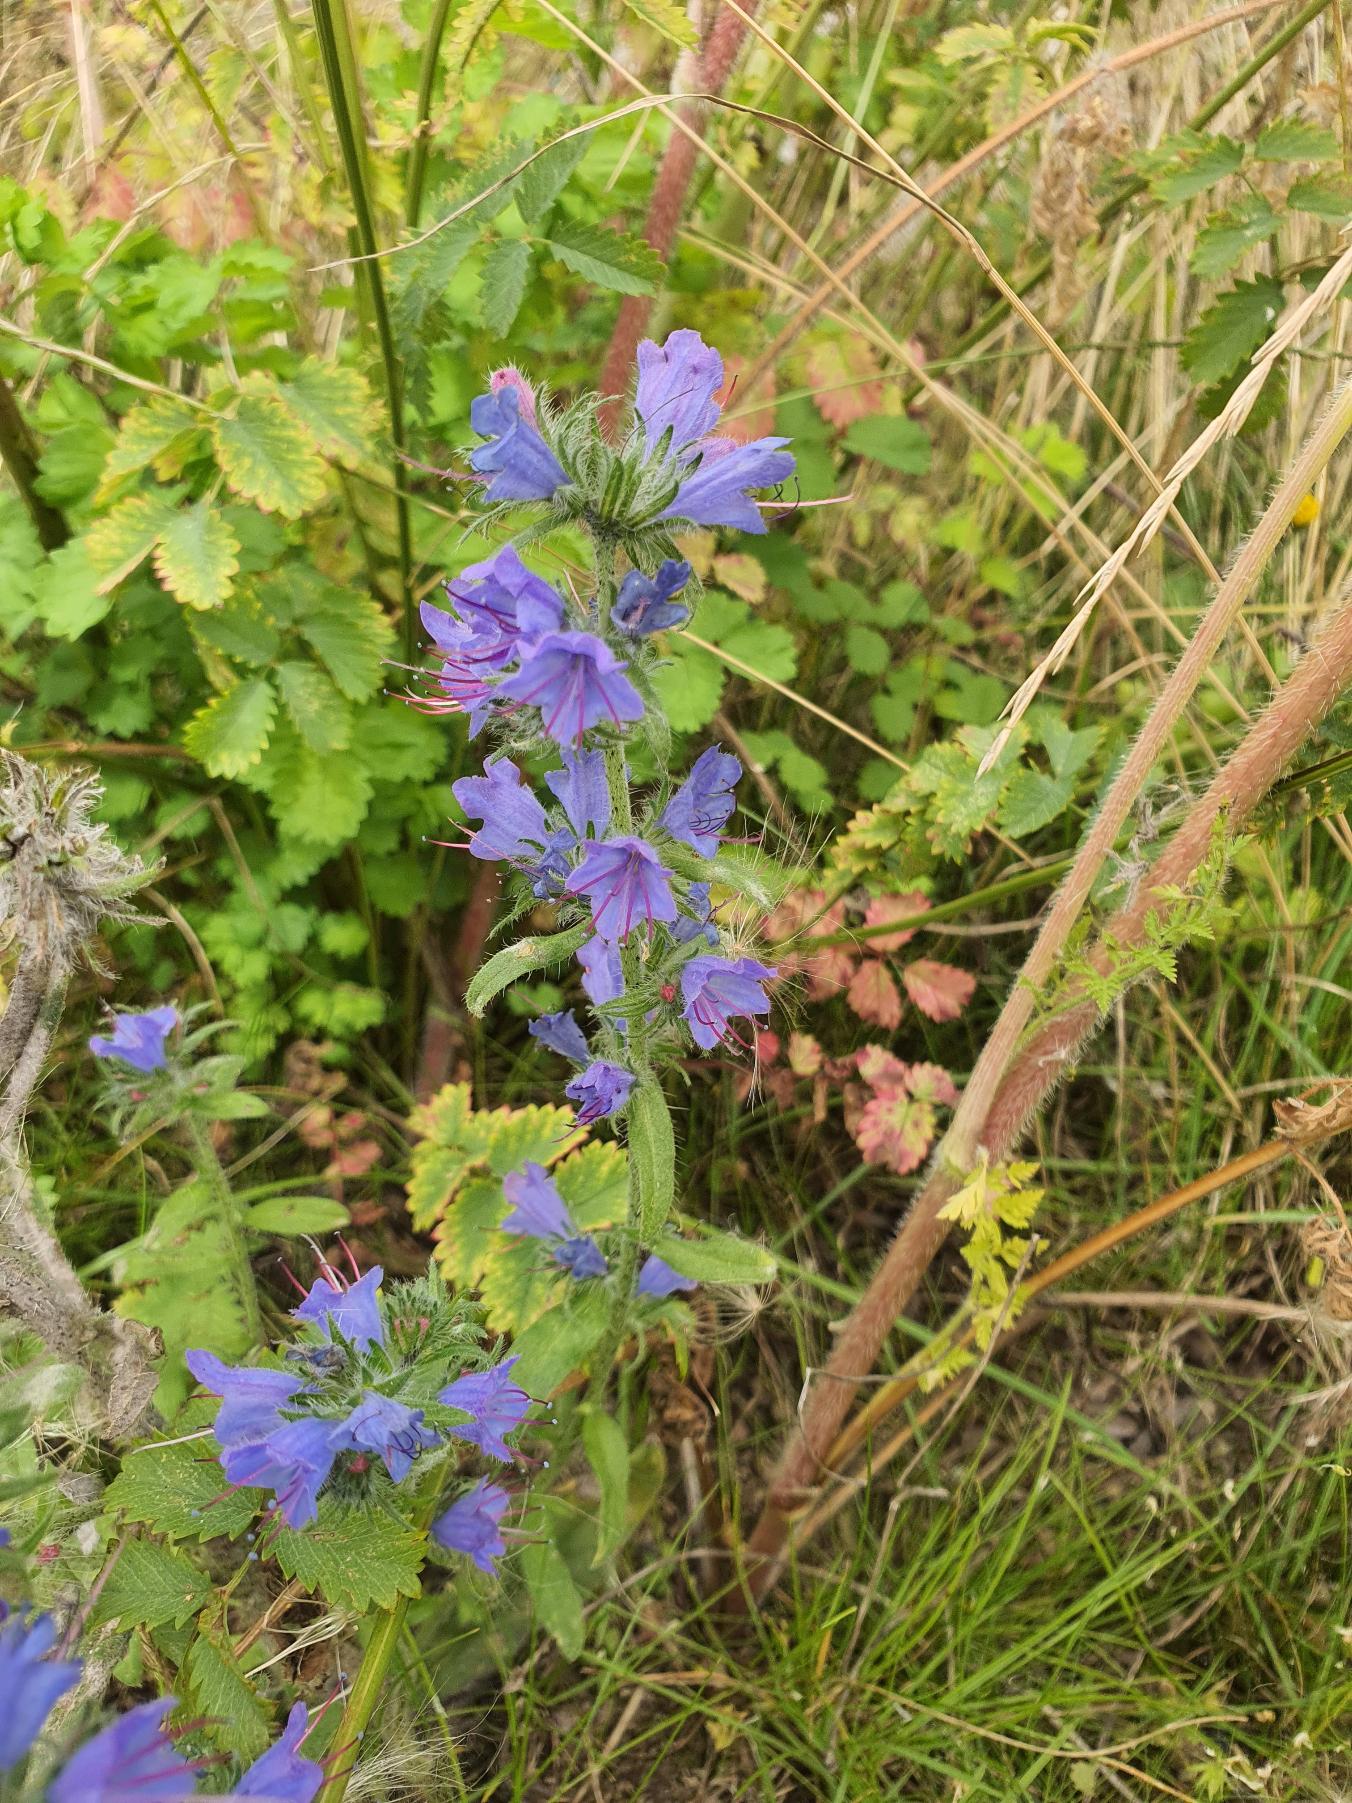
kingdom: Plantae
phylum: Tracheophyta
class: Magnoliopsida
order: Boraginales
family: Boraginaceae
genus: Echium
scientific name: Echium vulgare
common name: Slangehoved
